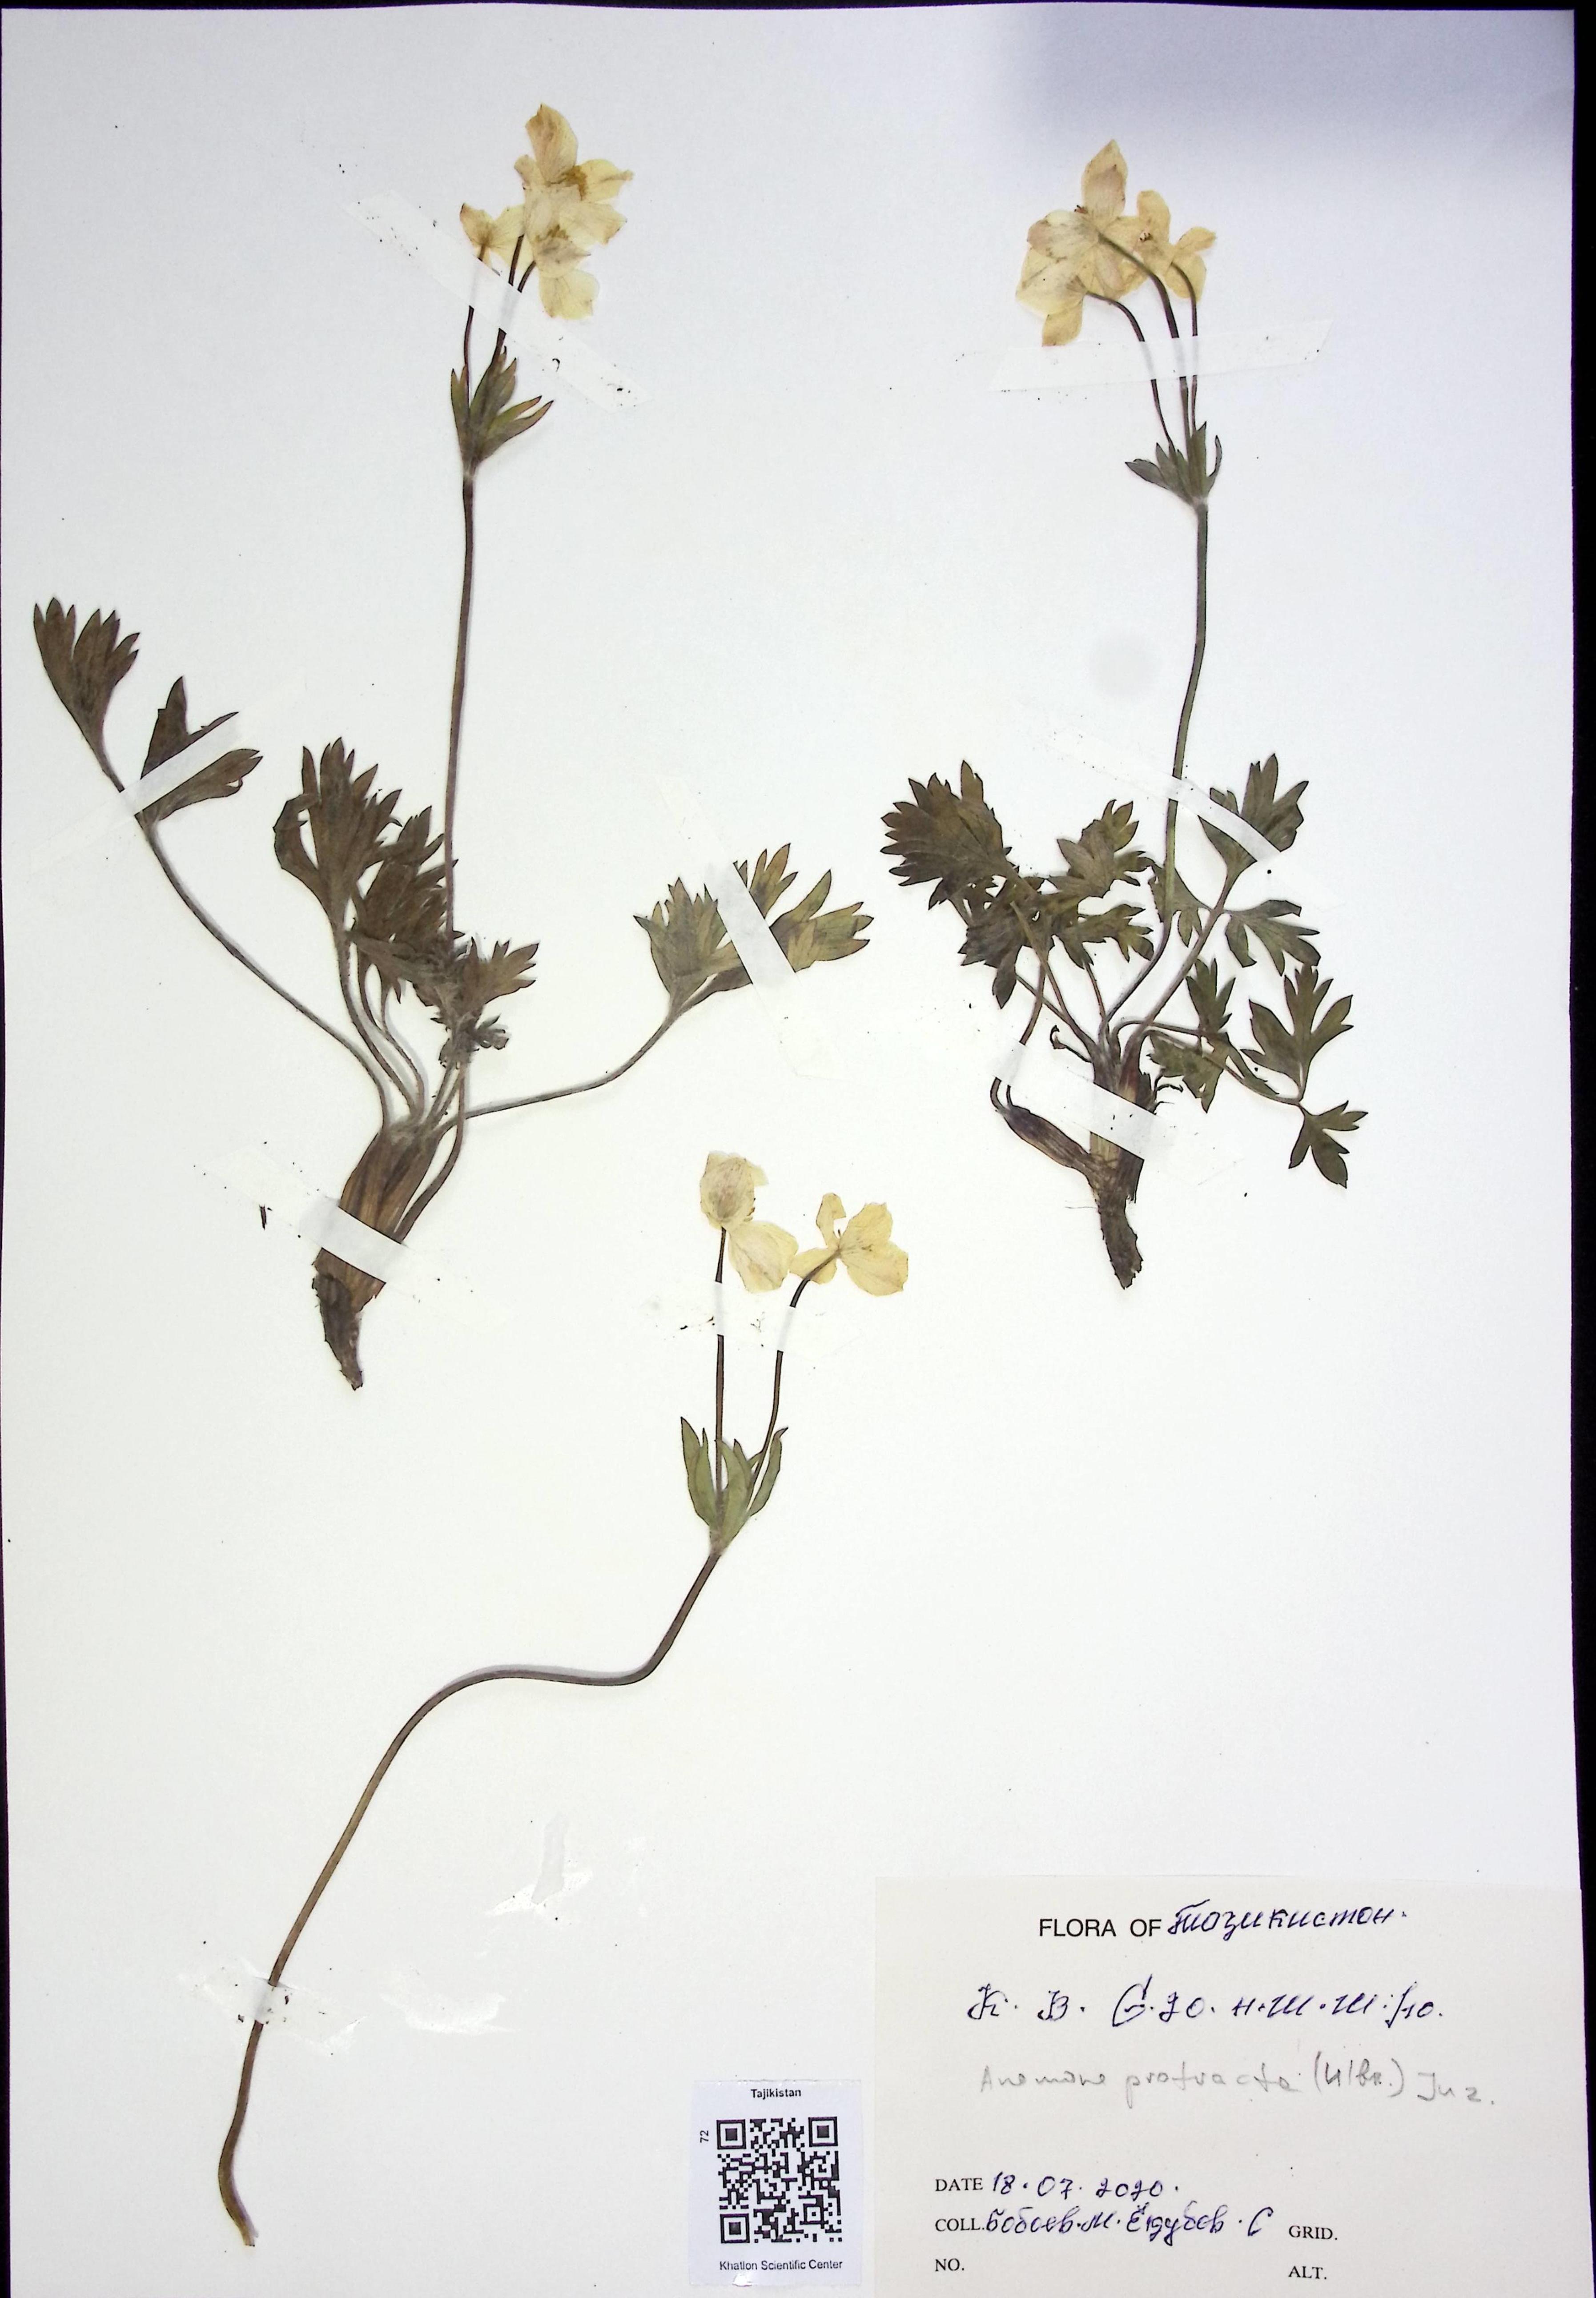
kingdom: Plantae
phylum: Tracheophyta
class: Magnoliopsida
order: Ranunculales
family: Ranunculaceae
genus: Anemonastrum
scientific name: Anemonastrum protractum
